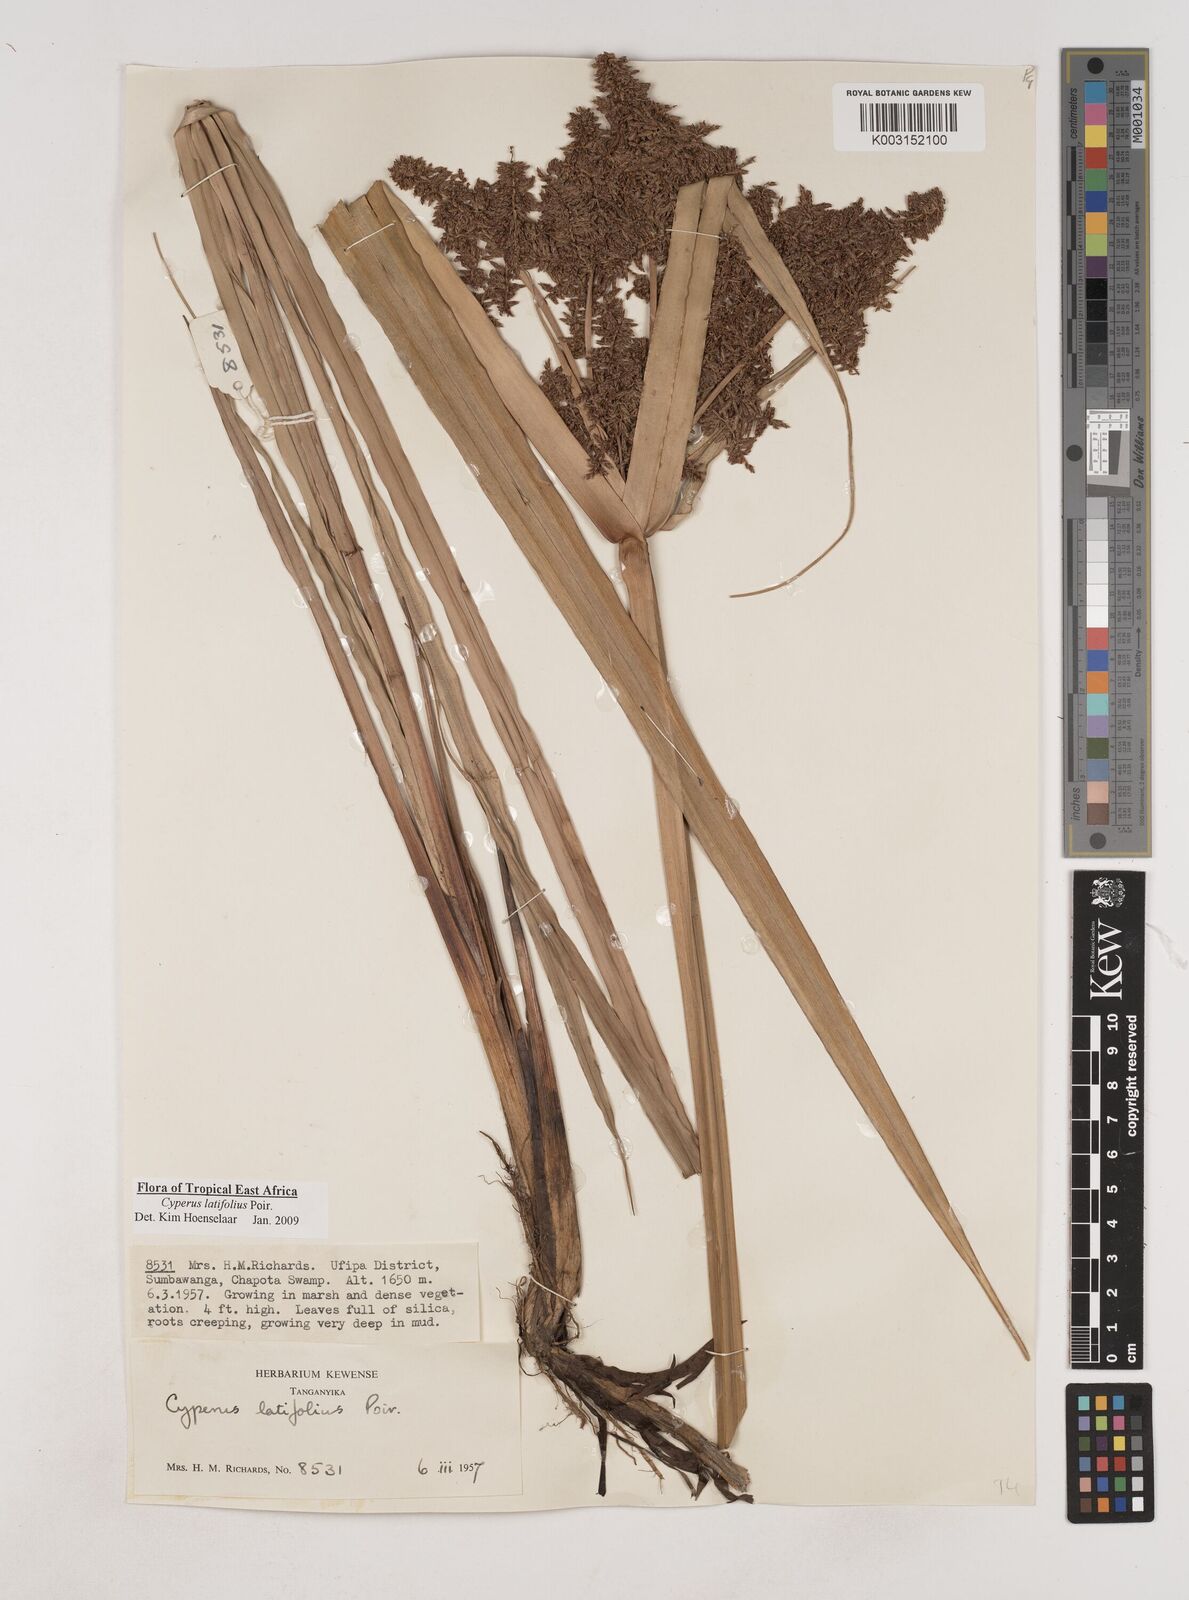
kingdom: Plantae
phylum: Tracheophyta
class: Liliopsida
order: Poales
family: Cyperaceae
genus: Cyperus
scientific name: Cyperus latifolius
